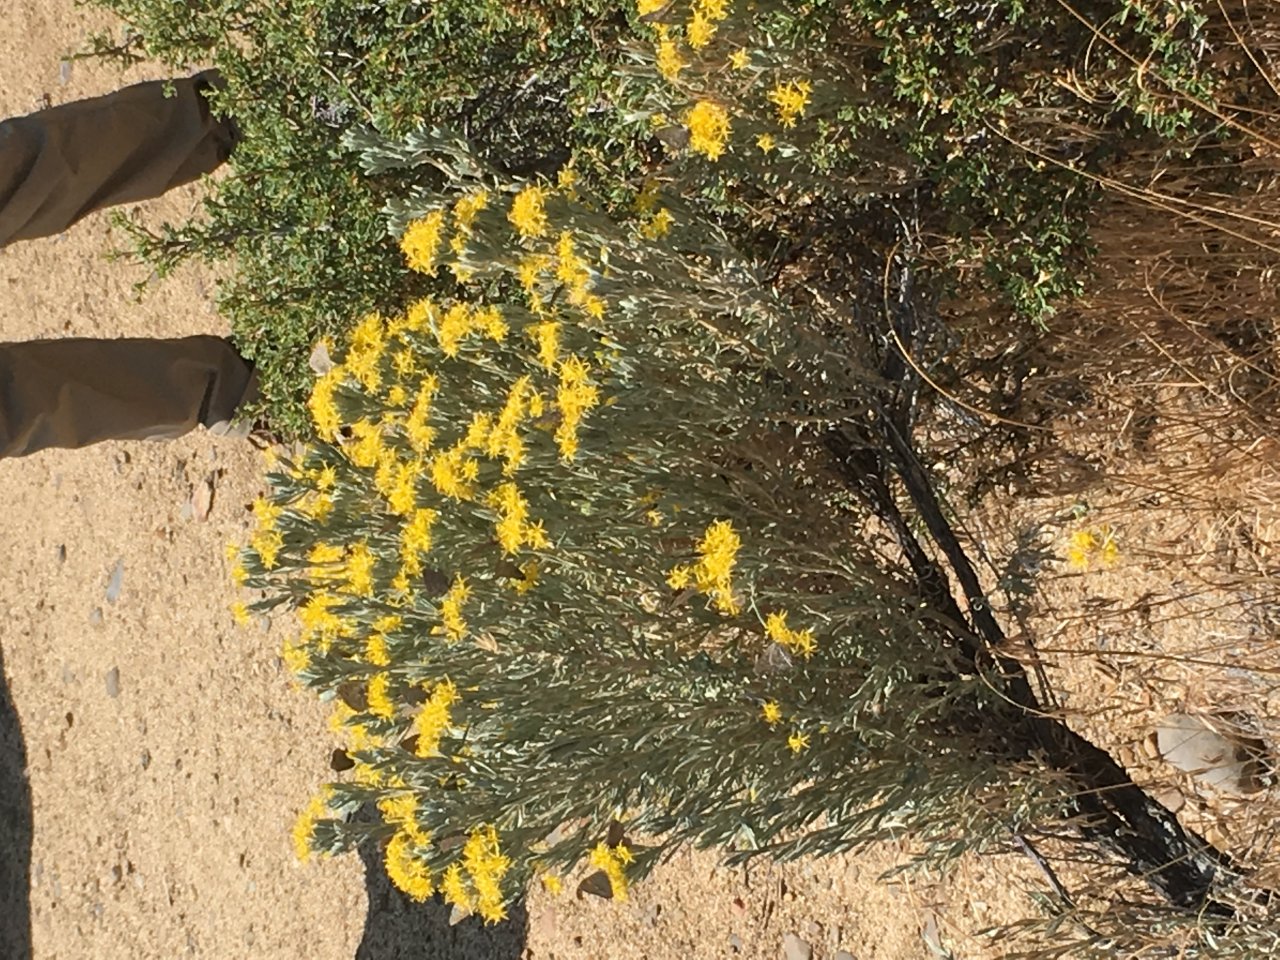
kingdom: Animalia
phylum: Arthropoda
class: Insecta
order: Lepidoptera
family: Sesiidae
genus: Sesia
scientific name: Sesia Lycaena arota
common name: Tailed Copper
